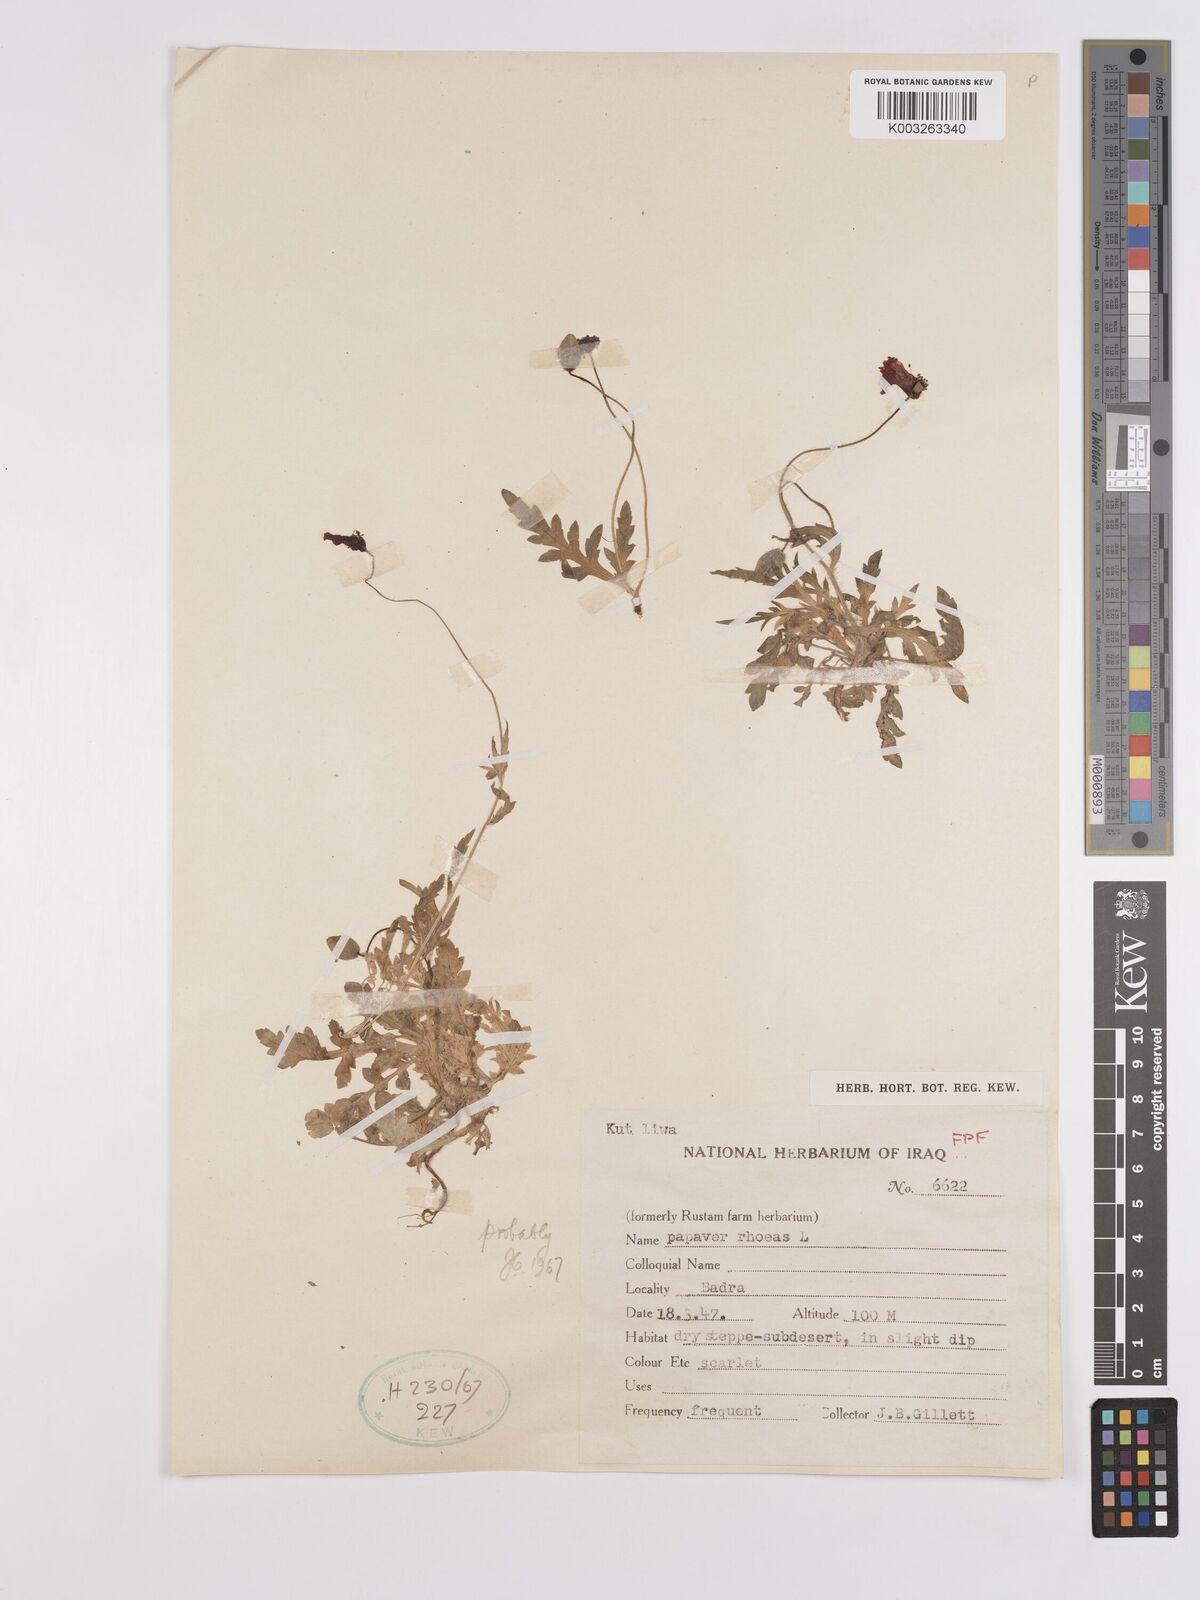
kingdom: Plantae
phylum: Tracheophyta
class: Magnoliopsida
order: Ranunculales
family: Papaveraceae
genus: Papaver
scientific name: Papaver rhoeas
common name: Corn poppy
